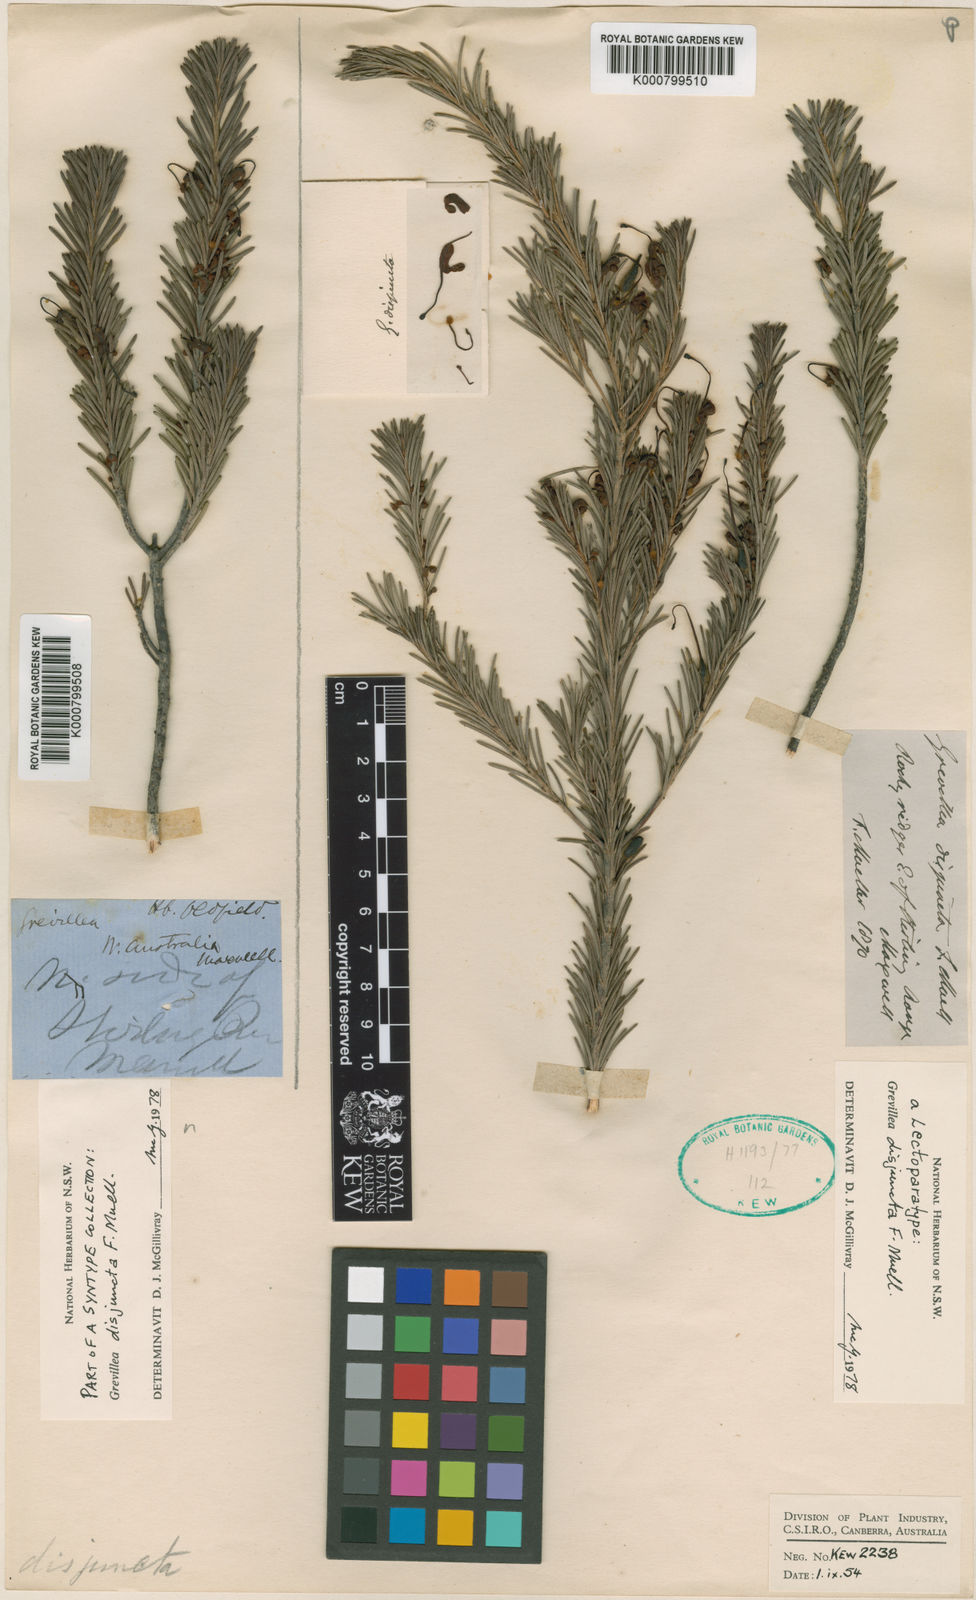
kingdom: Plantae
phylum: Tracheophyta
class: Magnoliopsida
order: Proteales
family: Proteaceae
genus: Grevillea
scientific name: Grevillea disjuncta
